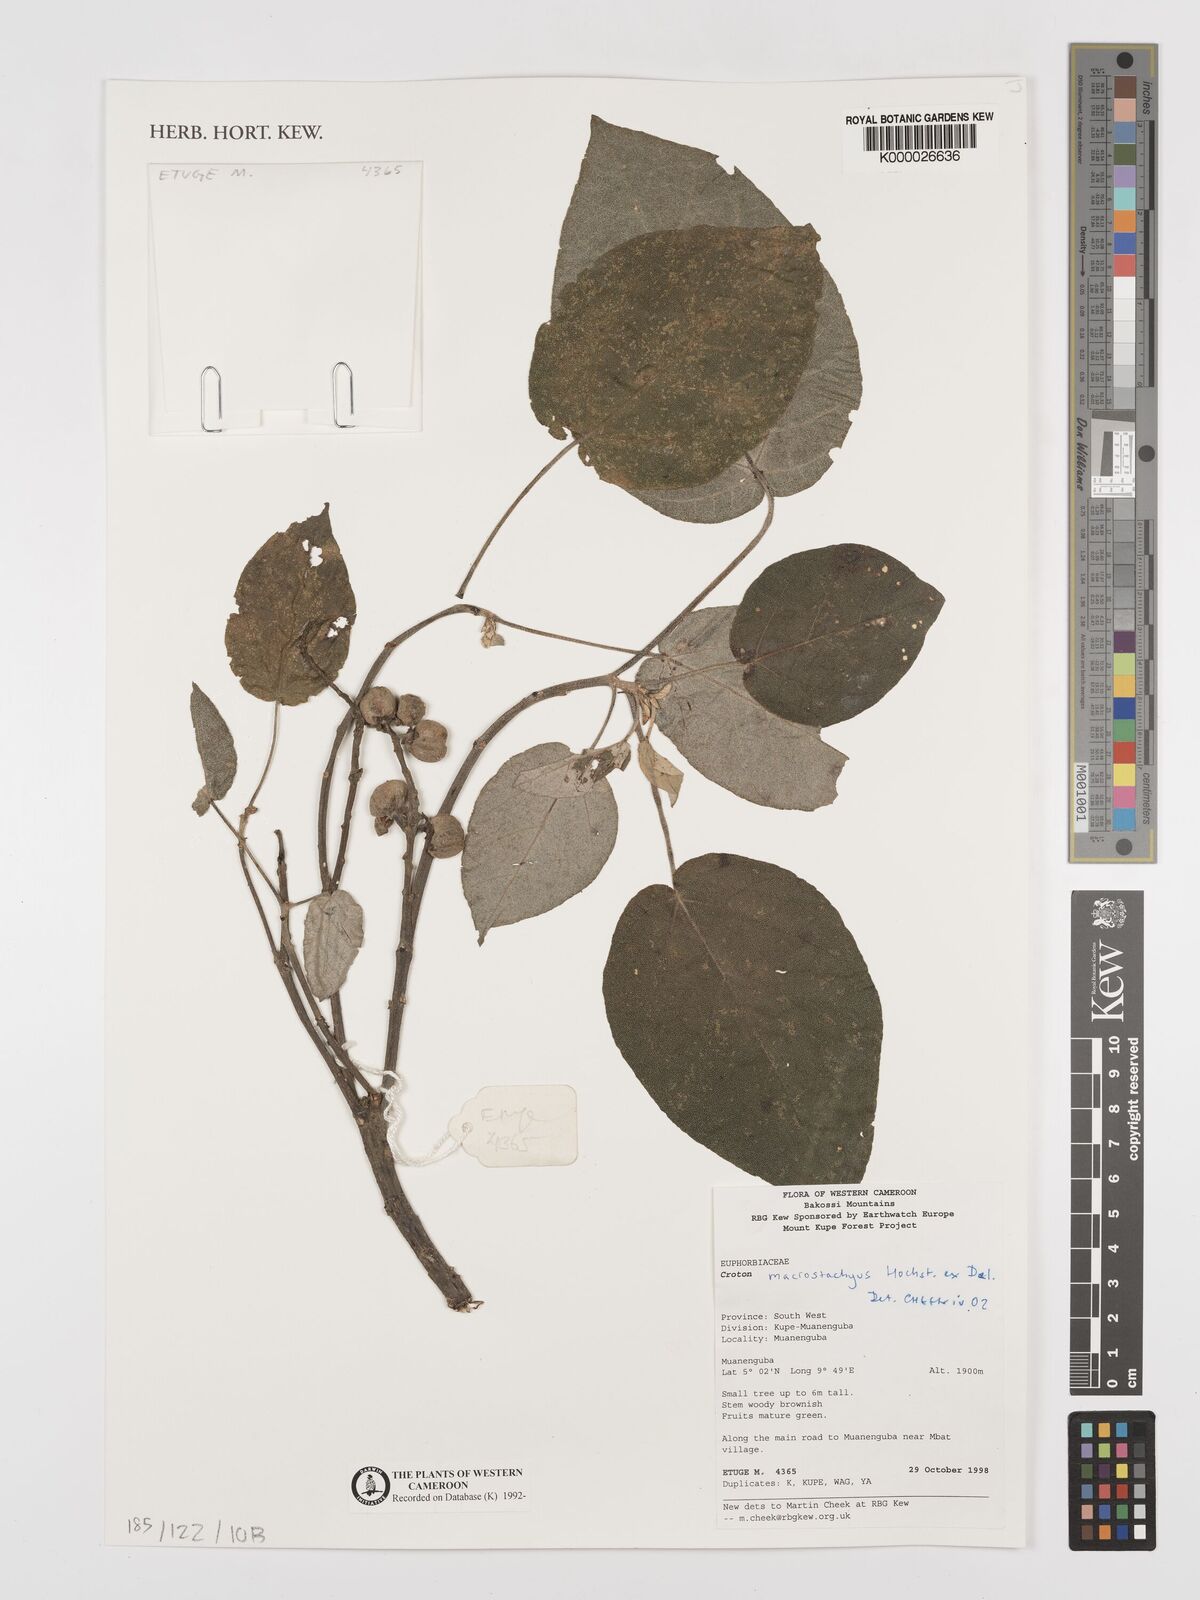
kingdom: Plantae
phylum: Tracheophyta
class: Magnoliopsida
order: Malpighiales
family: Euphorbiaceae
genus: Croton
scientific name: Croton macrostachyus
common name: Mutundu
